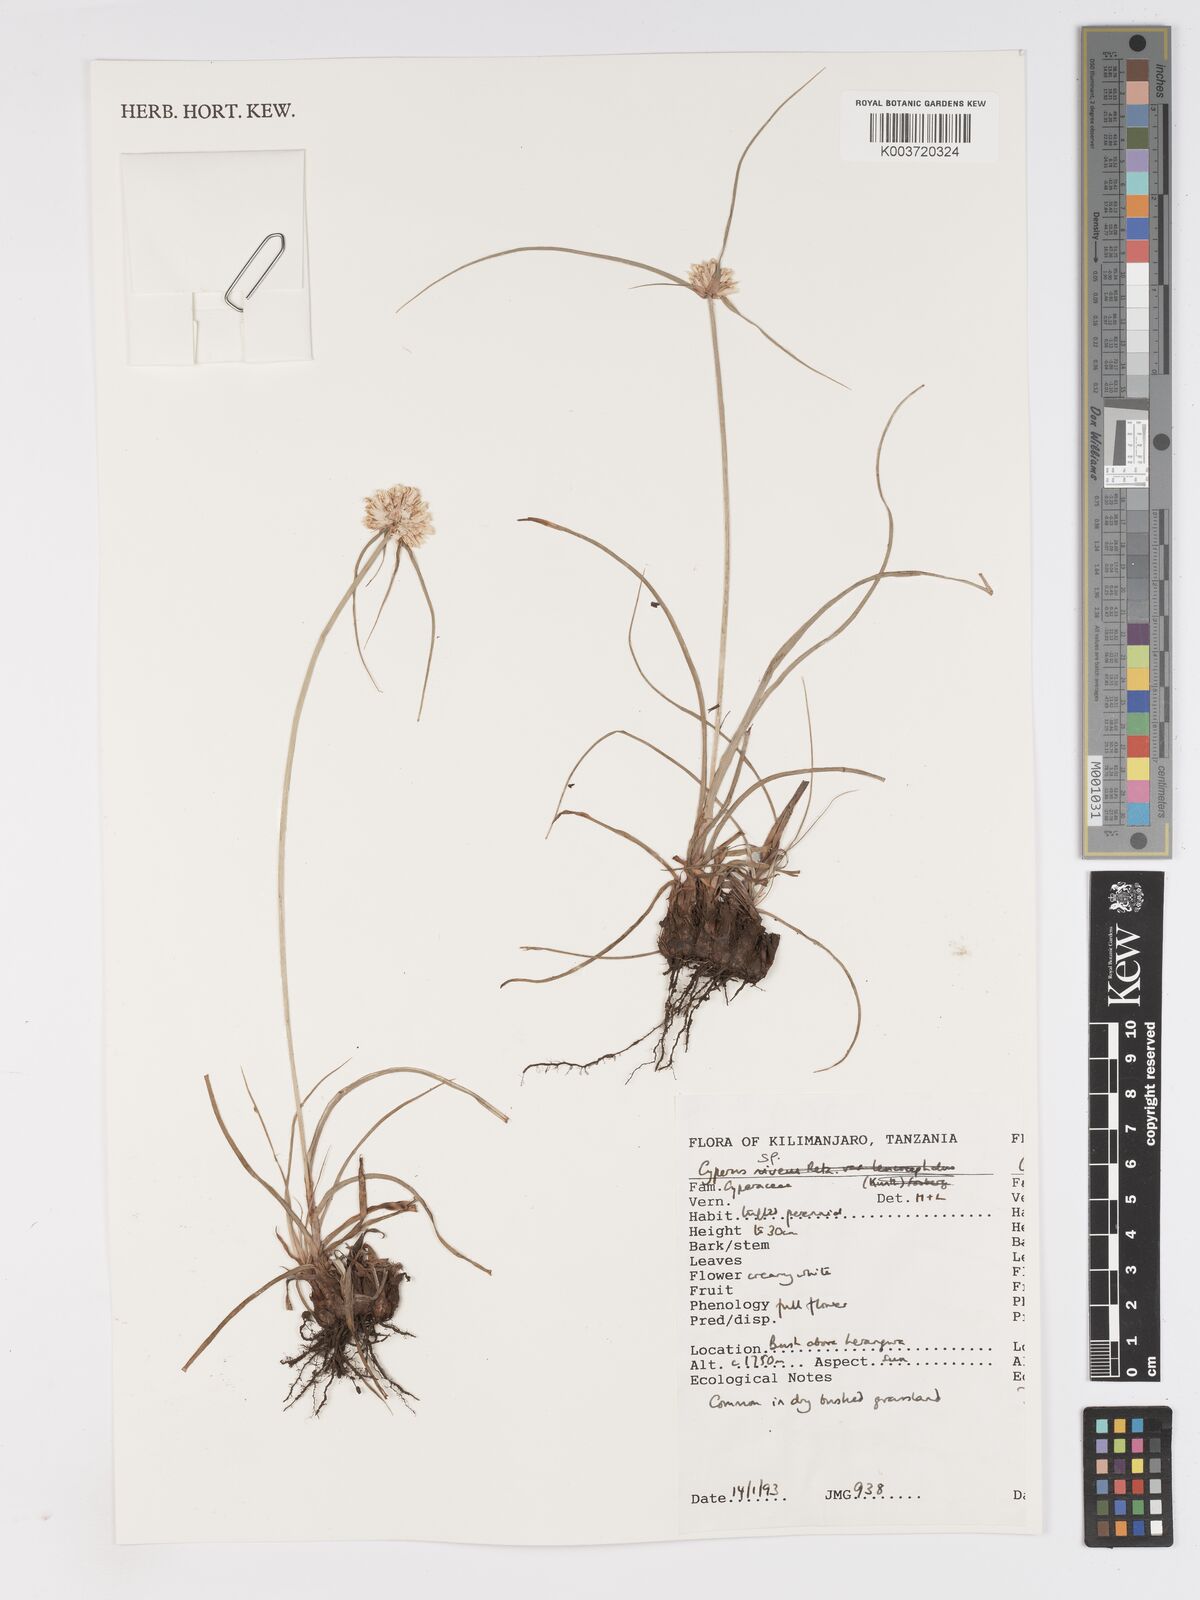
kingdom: Plantae
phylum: Tracheophyta
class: Liliopsida
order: Poales
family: Cyperaceae
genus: Cyperus
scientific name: Cyperus
